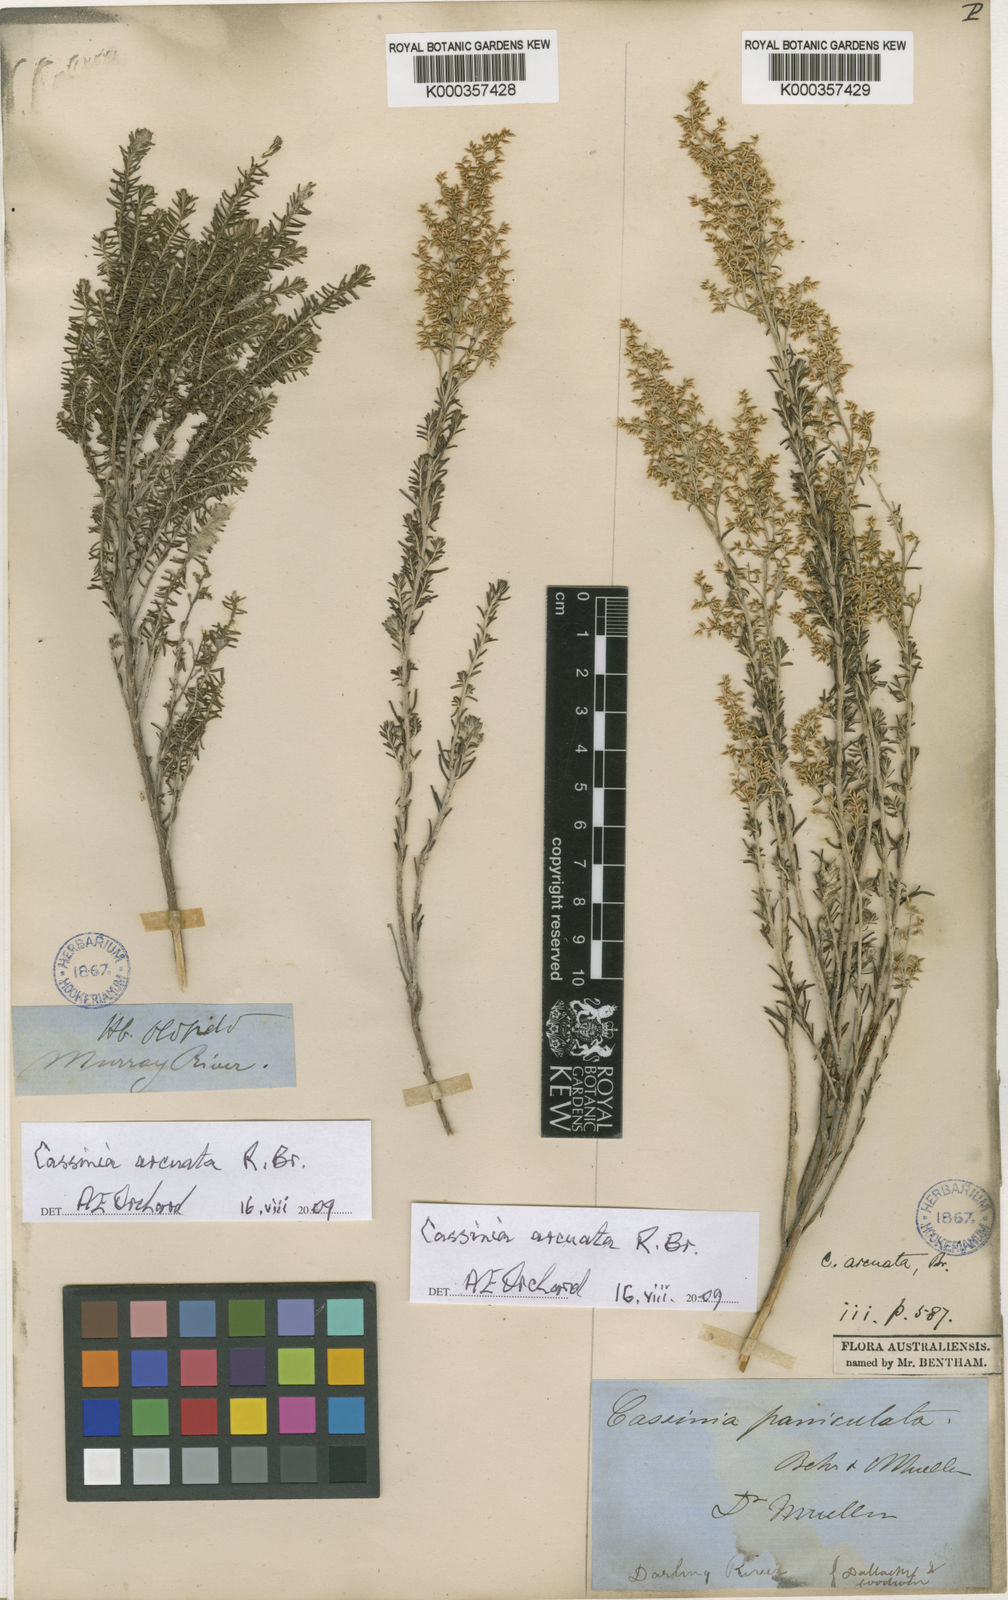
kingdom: Plantae
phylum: Tracheophyta
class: Magnoliopsida
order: Asterales
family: Asteraceae
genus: Cassinia
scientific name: Cassinia arcuata
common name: Chineseshrub
